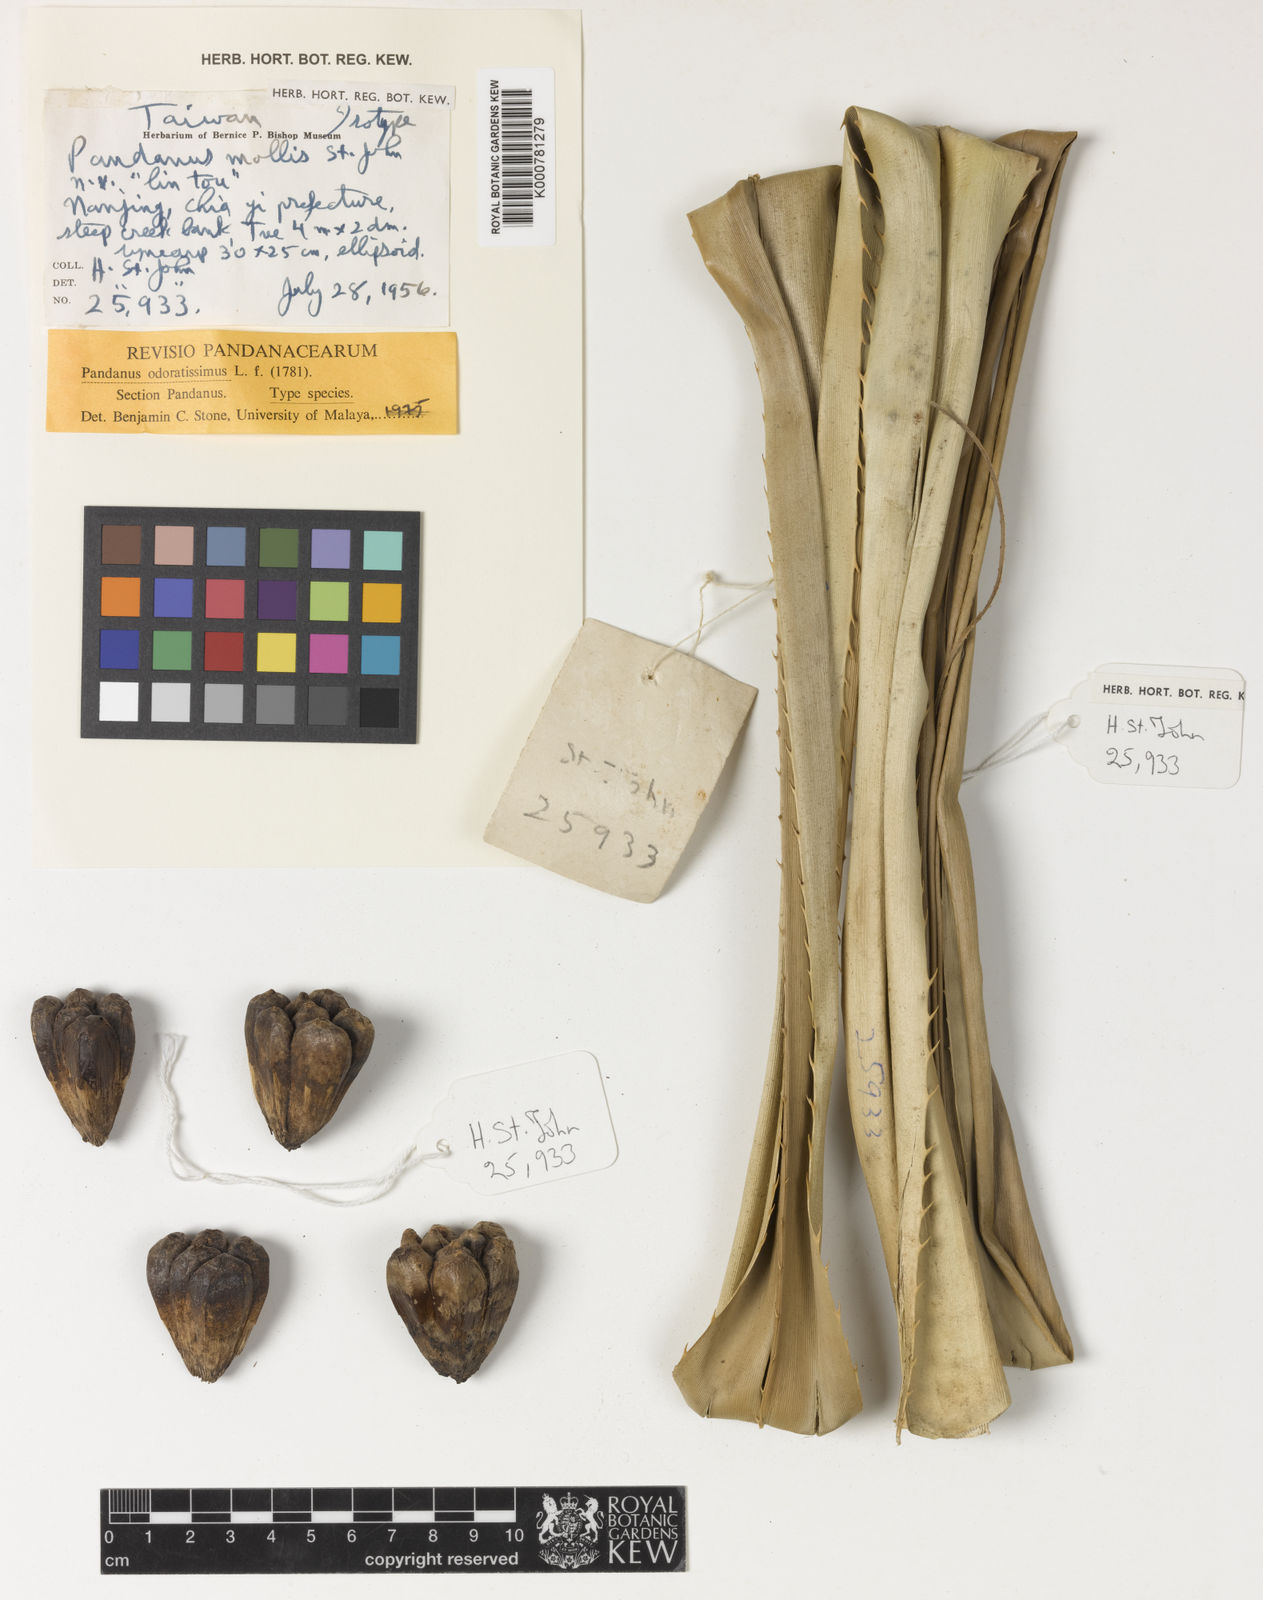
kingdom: Plantae
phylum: Tracheophyta
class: Liliopsida
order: Pandanales
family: Pandanaceae
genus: Pandanus
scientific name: Pandanus odorifer
